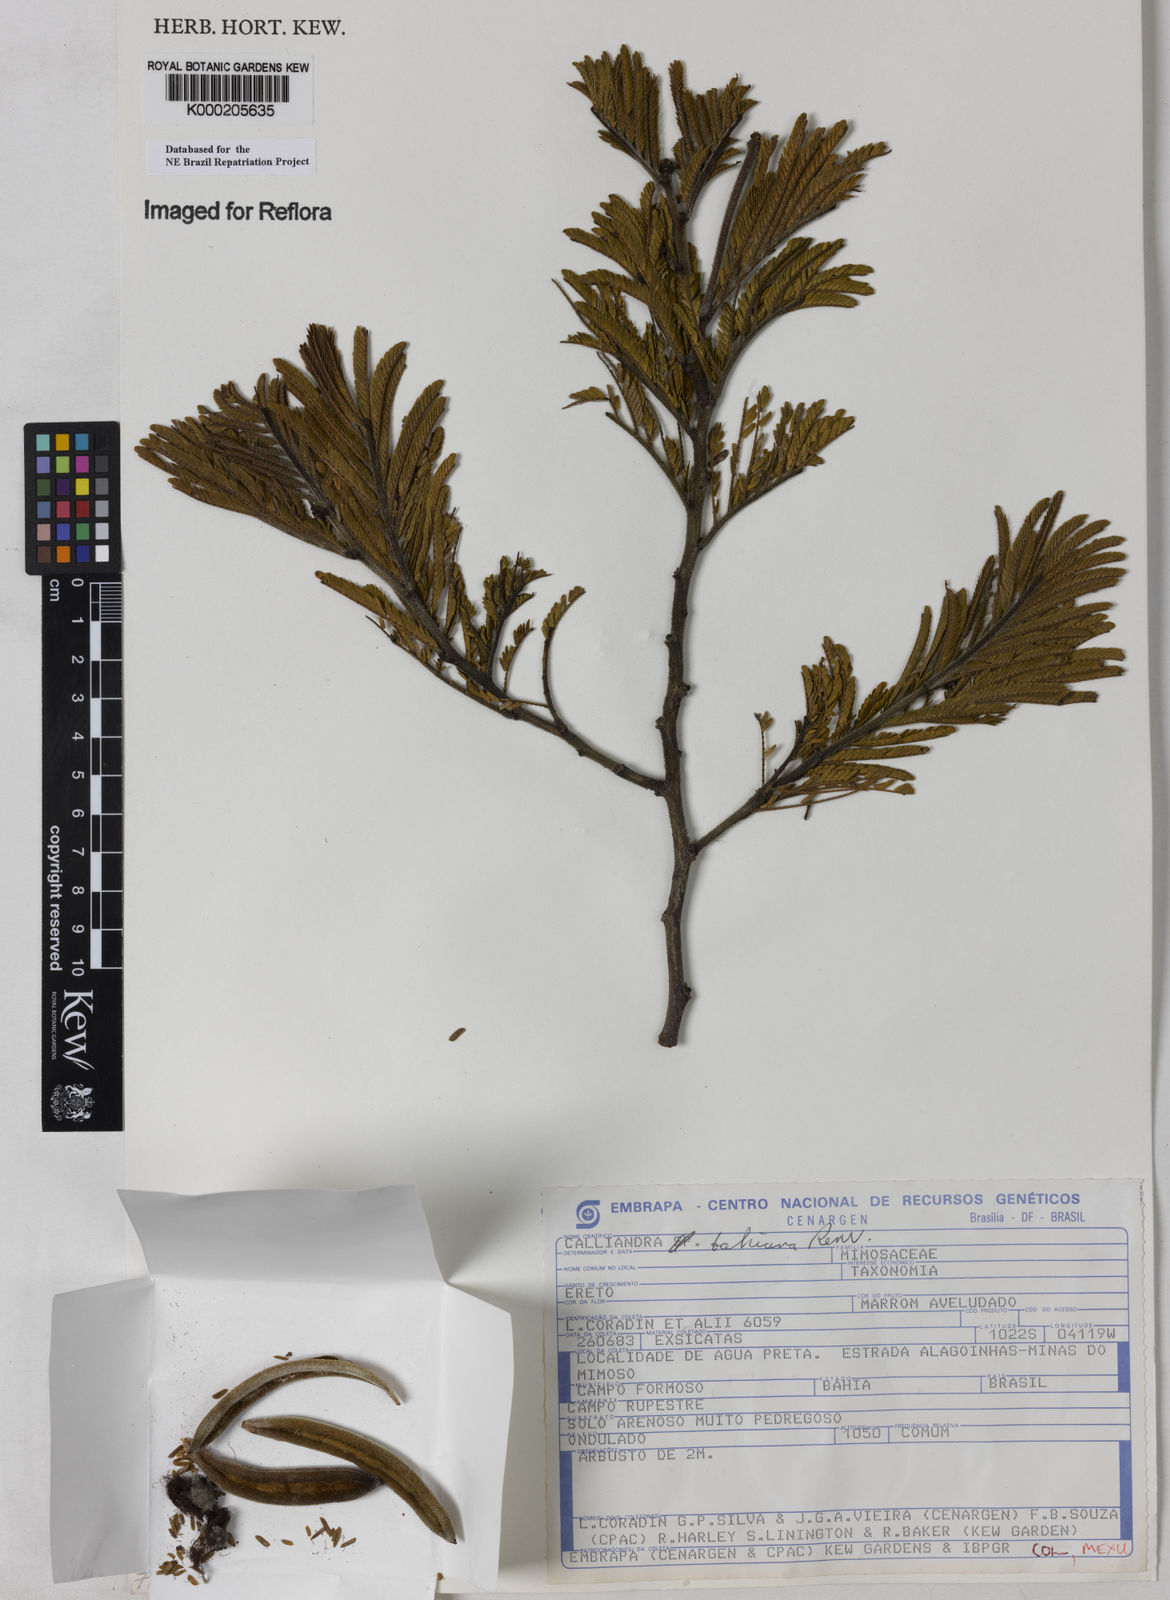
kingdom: Plantae
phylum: Tracheophyta
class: Magnoliopsida
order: Fabales
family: Fabaceae
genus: Calliandra
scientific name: Calliandra bahiana
